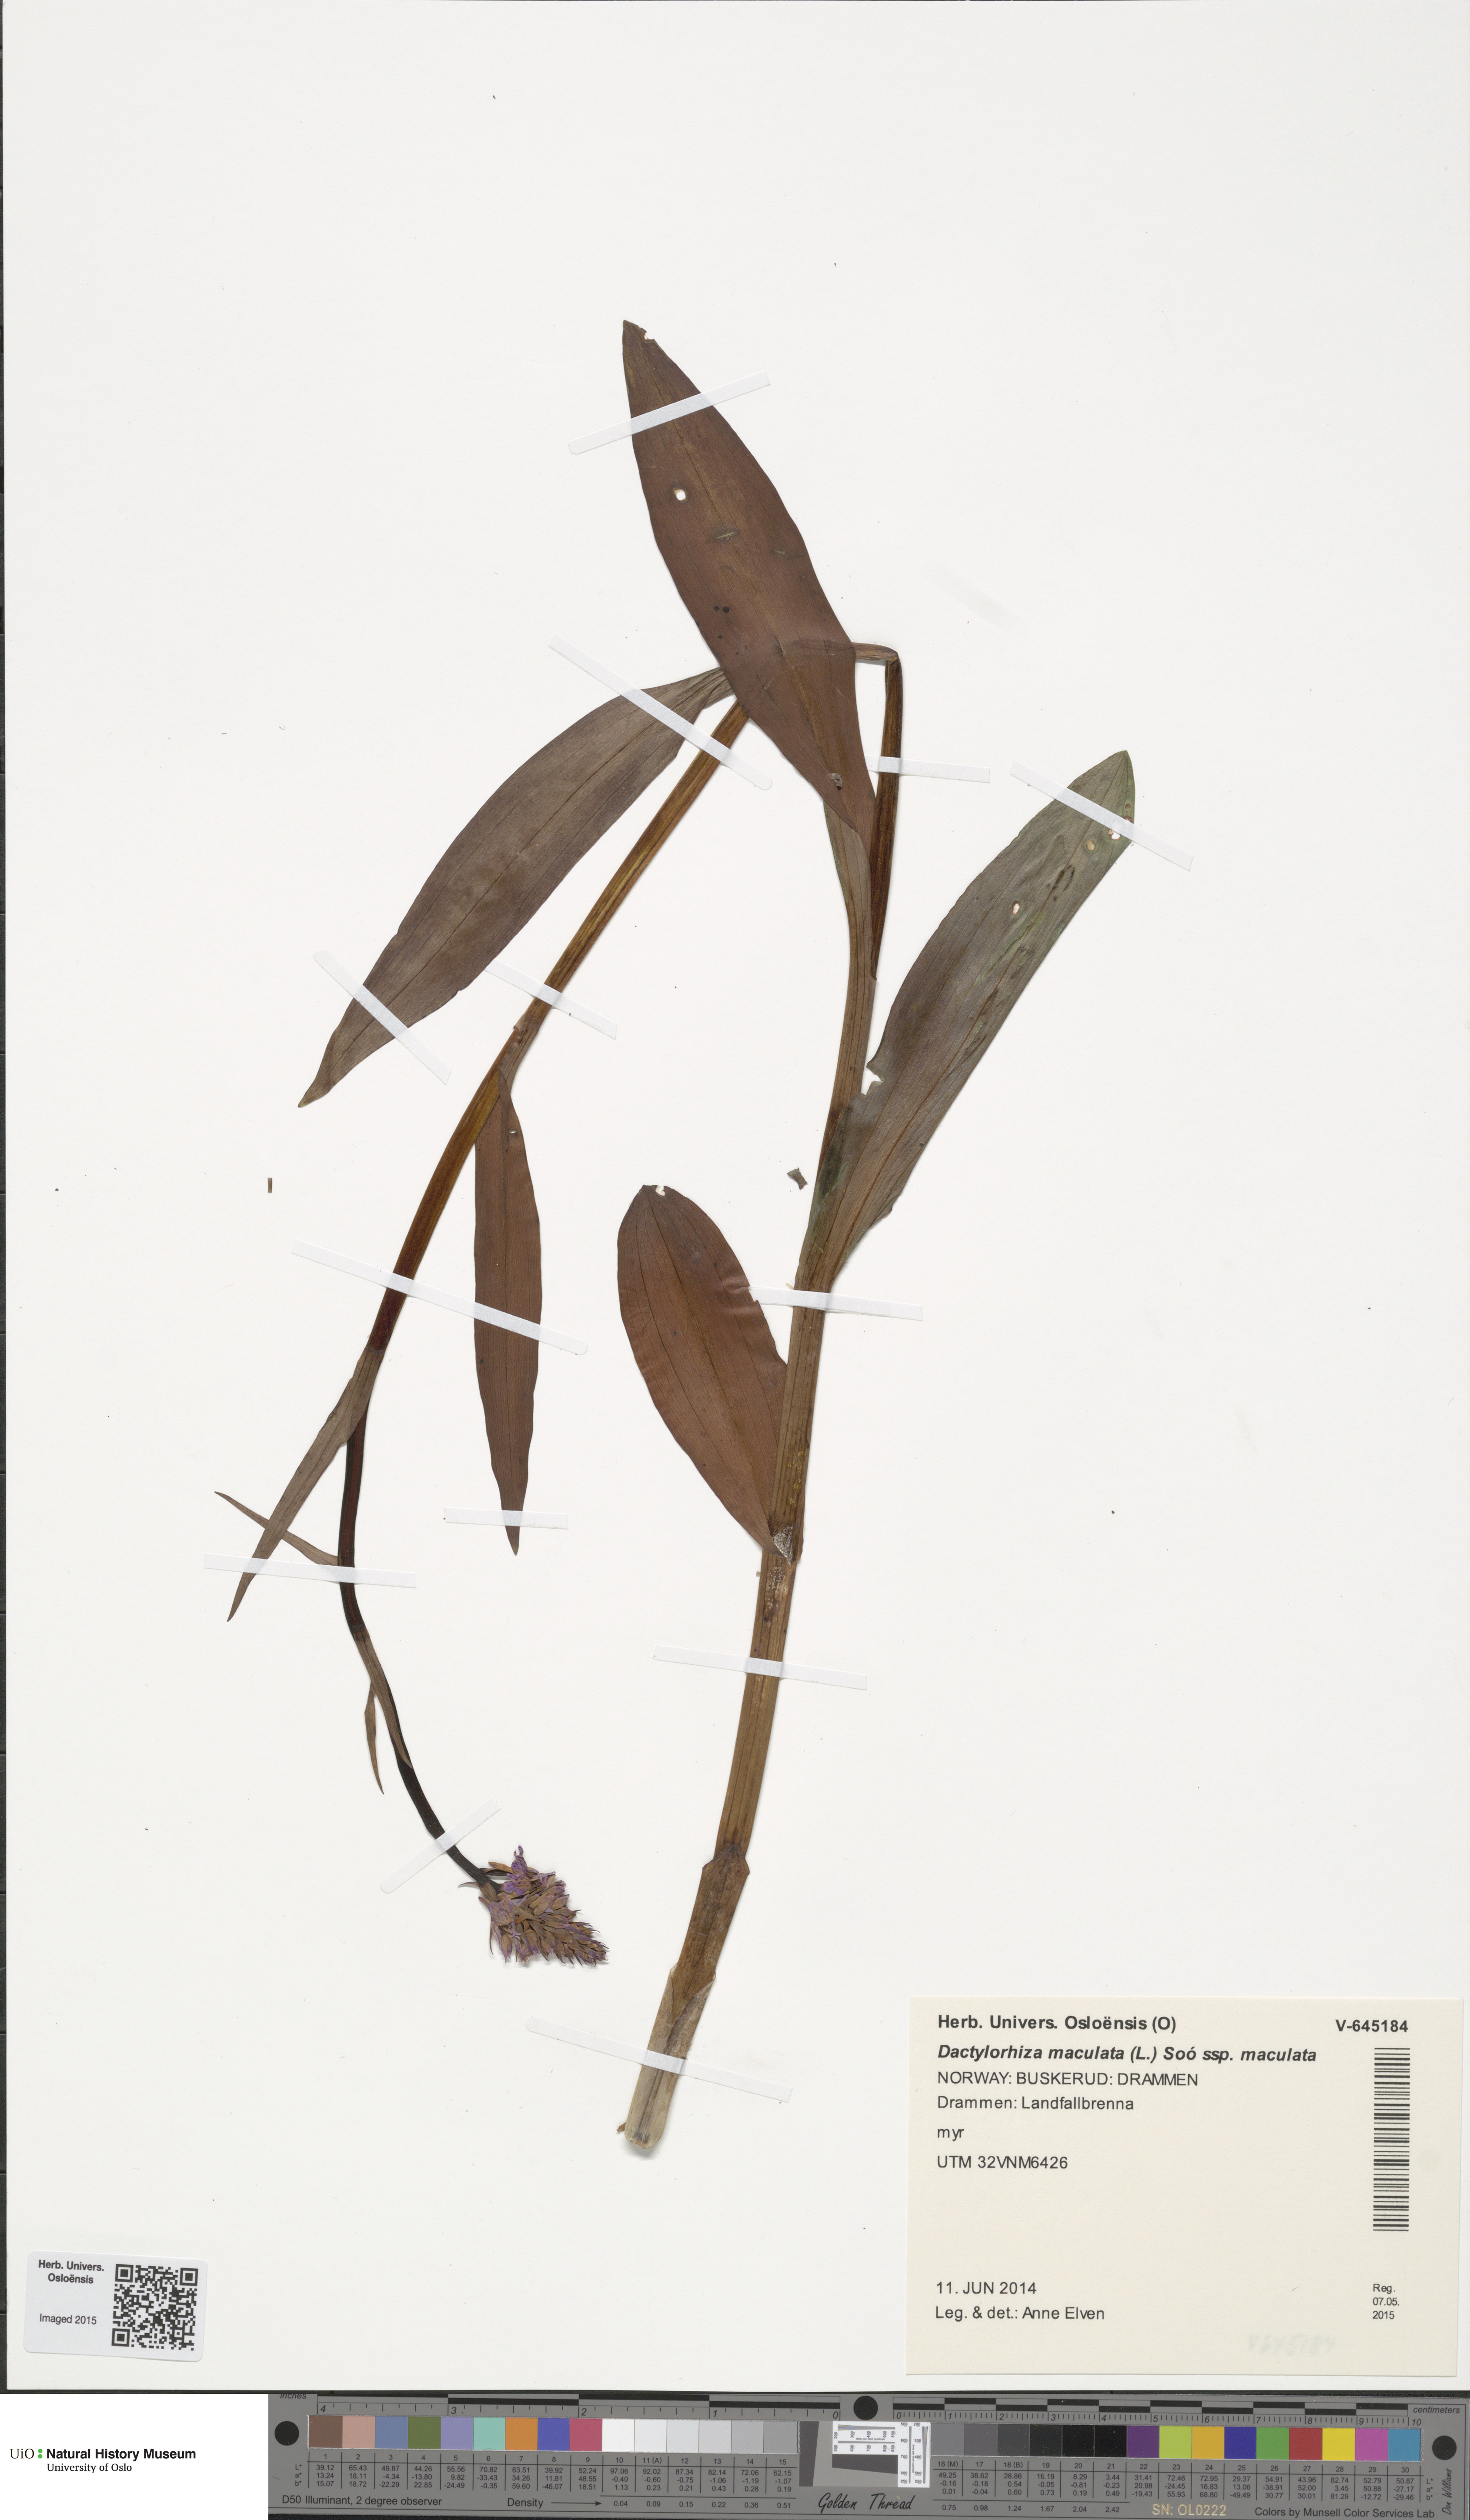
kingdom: Plantae
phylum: Tracheophyta
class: Liliopsida
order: Asparagales
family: Orchidaceae
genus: Dactylorhiza
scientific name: Dactylorhiza maculata
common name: Heath spotted-orchid
